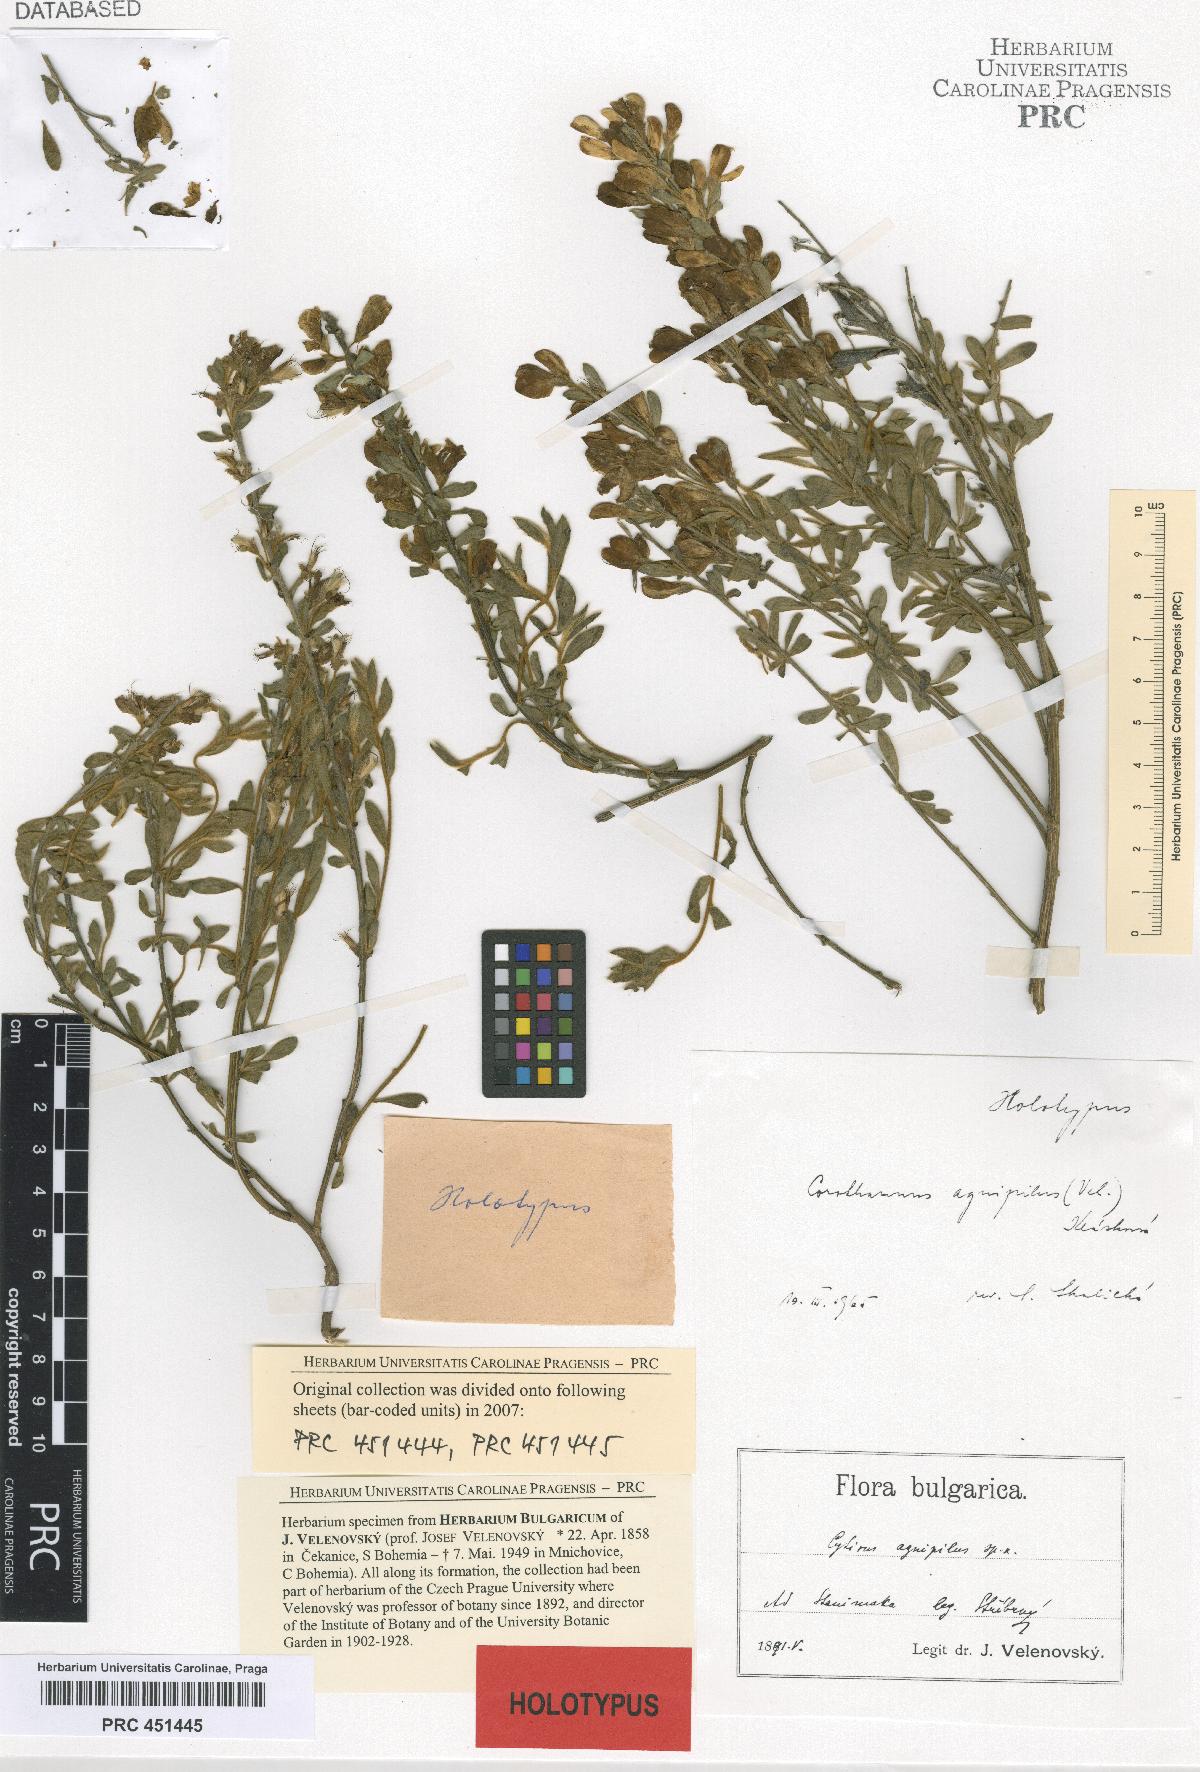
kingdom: Plantae
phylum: Tracheophyta
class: Magnoliopsida
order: Fabales
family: Fabaceae
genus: Cytisus
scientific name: Cytisus agnipilus
